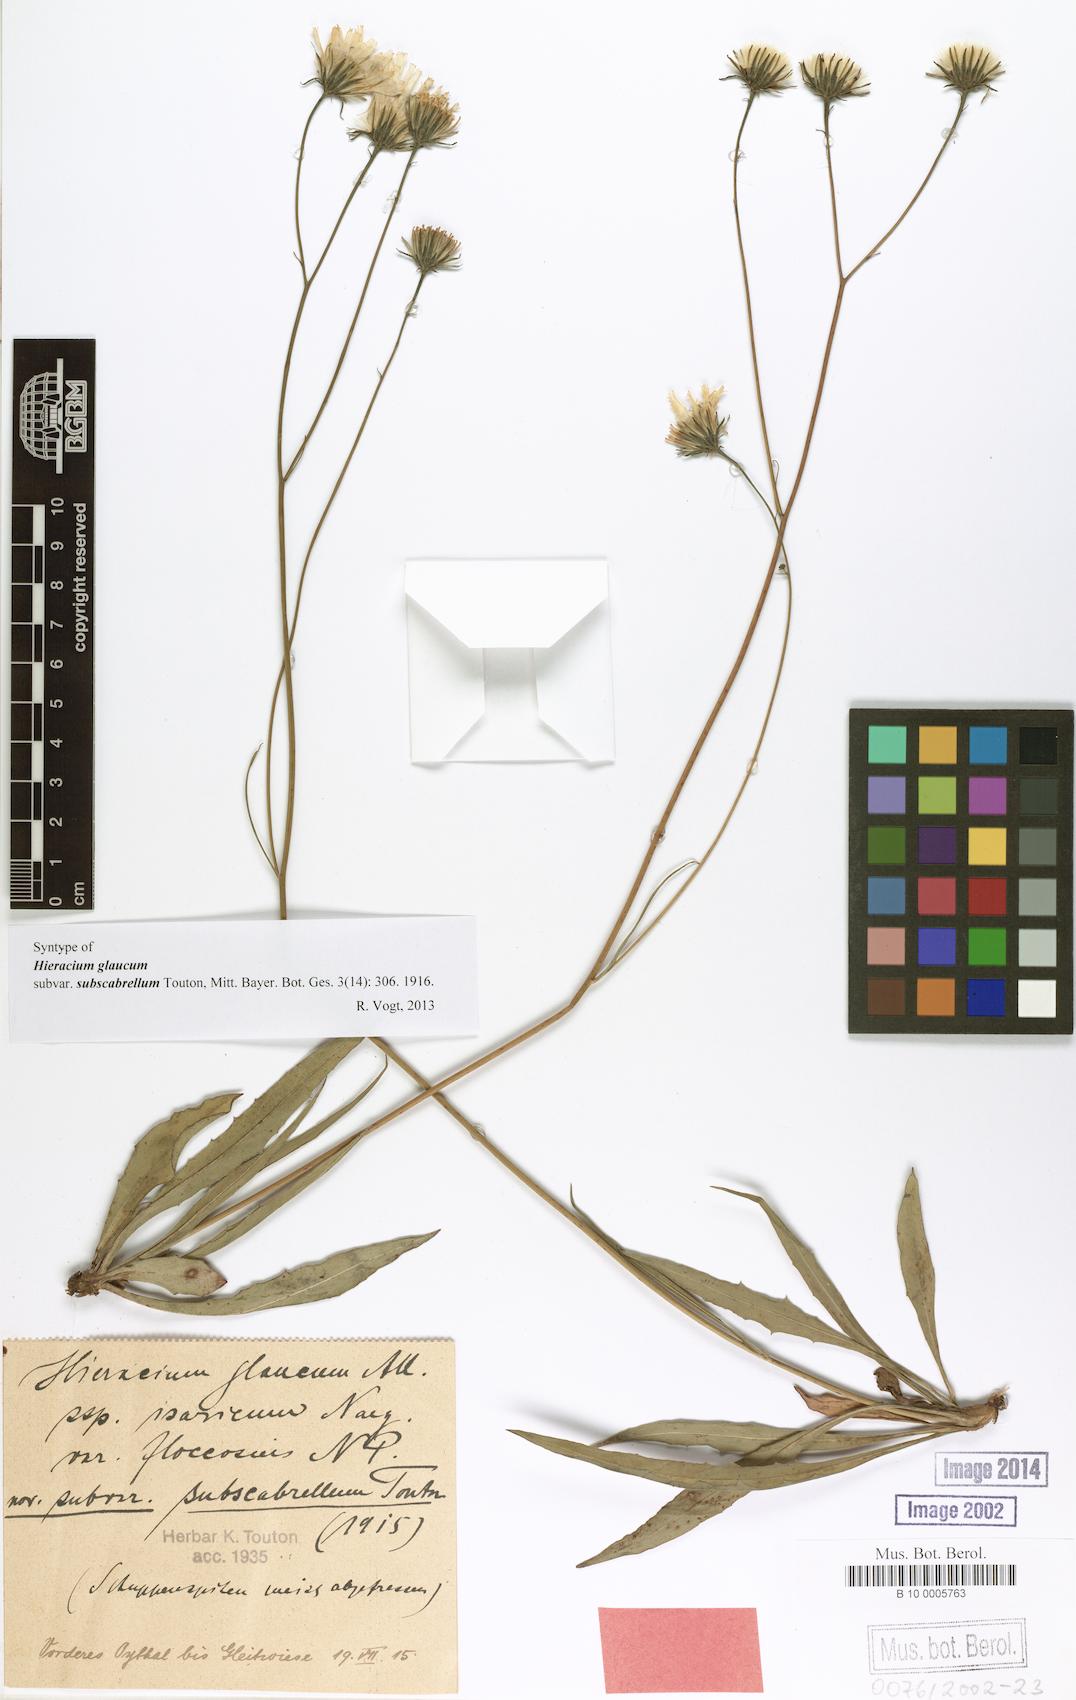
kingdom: Plantae
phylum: Tracheophyta
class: Magnoliopsida
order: Asterales
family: Asteraceae
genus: Hieracium
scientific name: Hieracium glaucum
